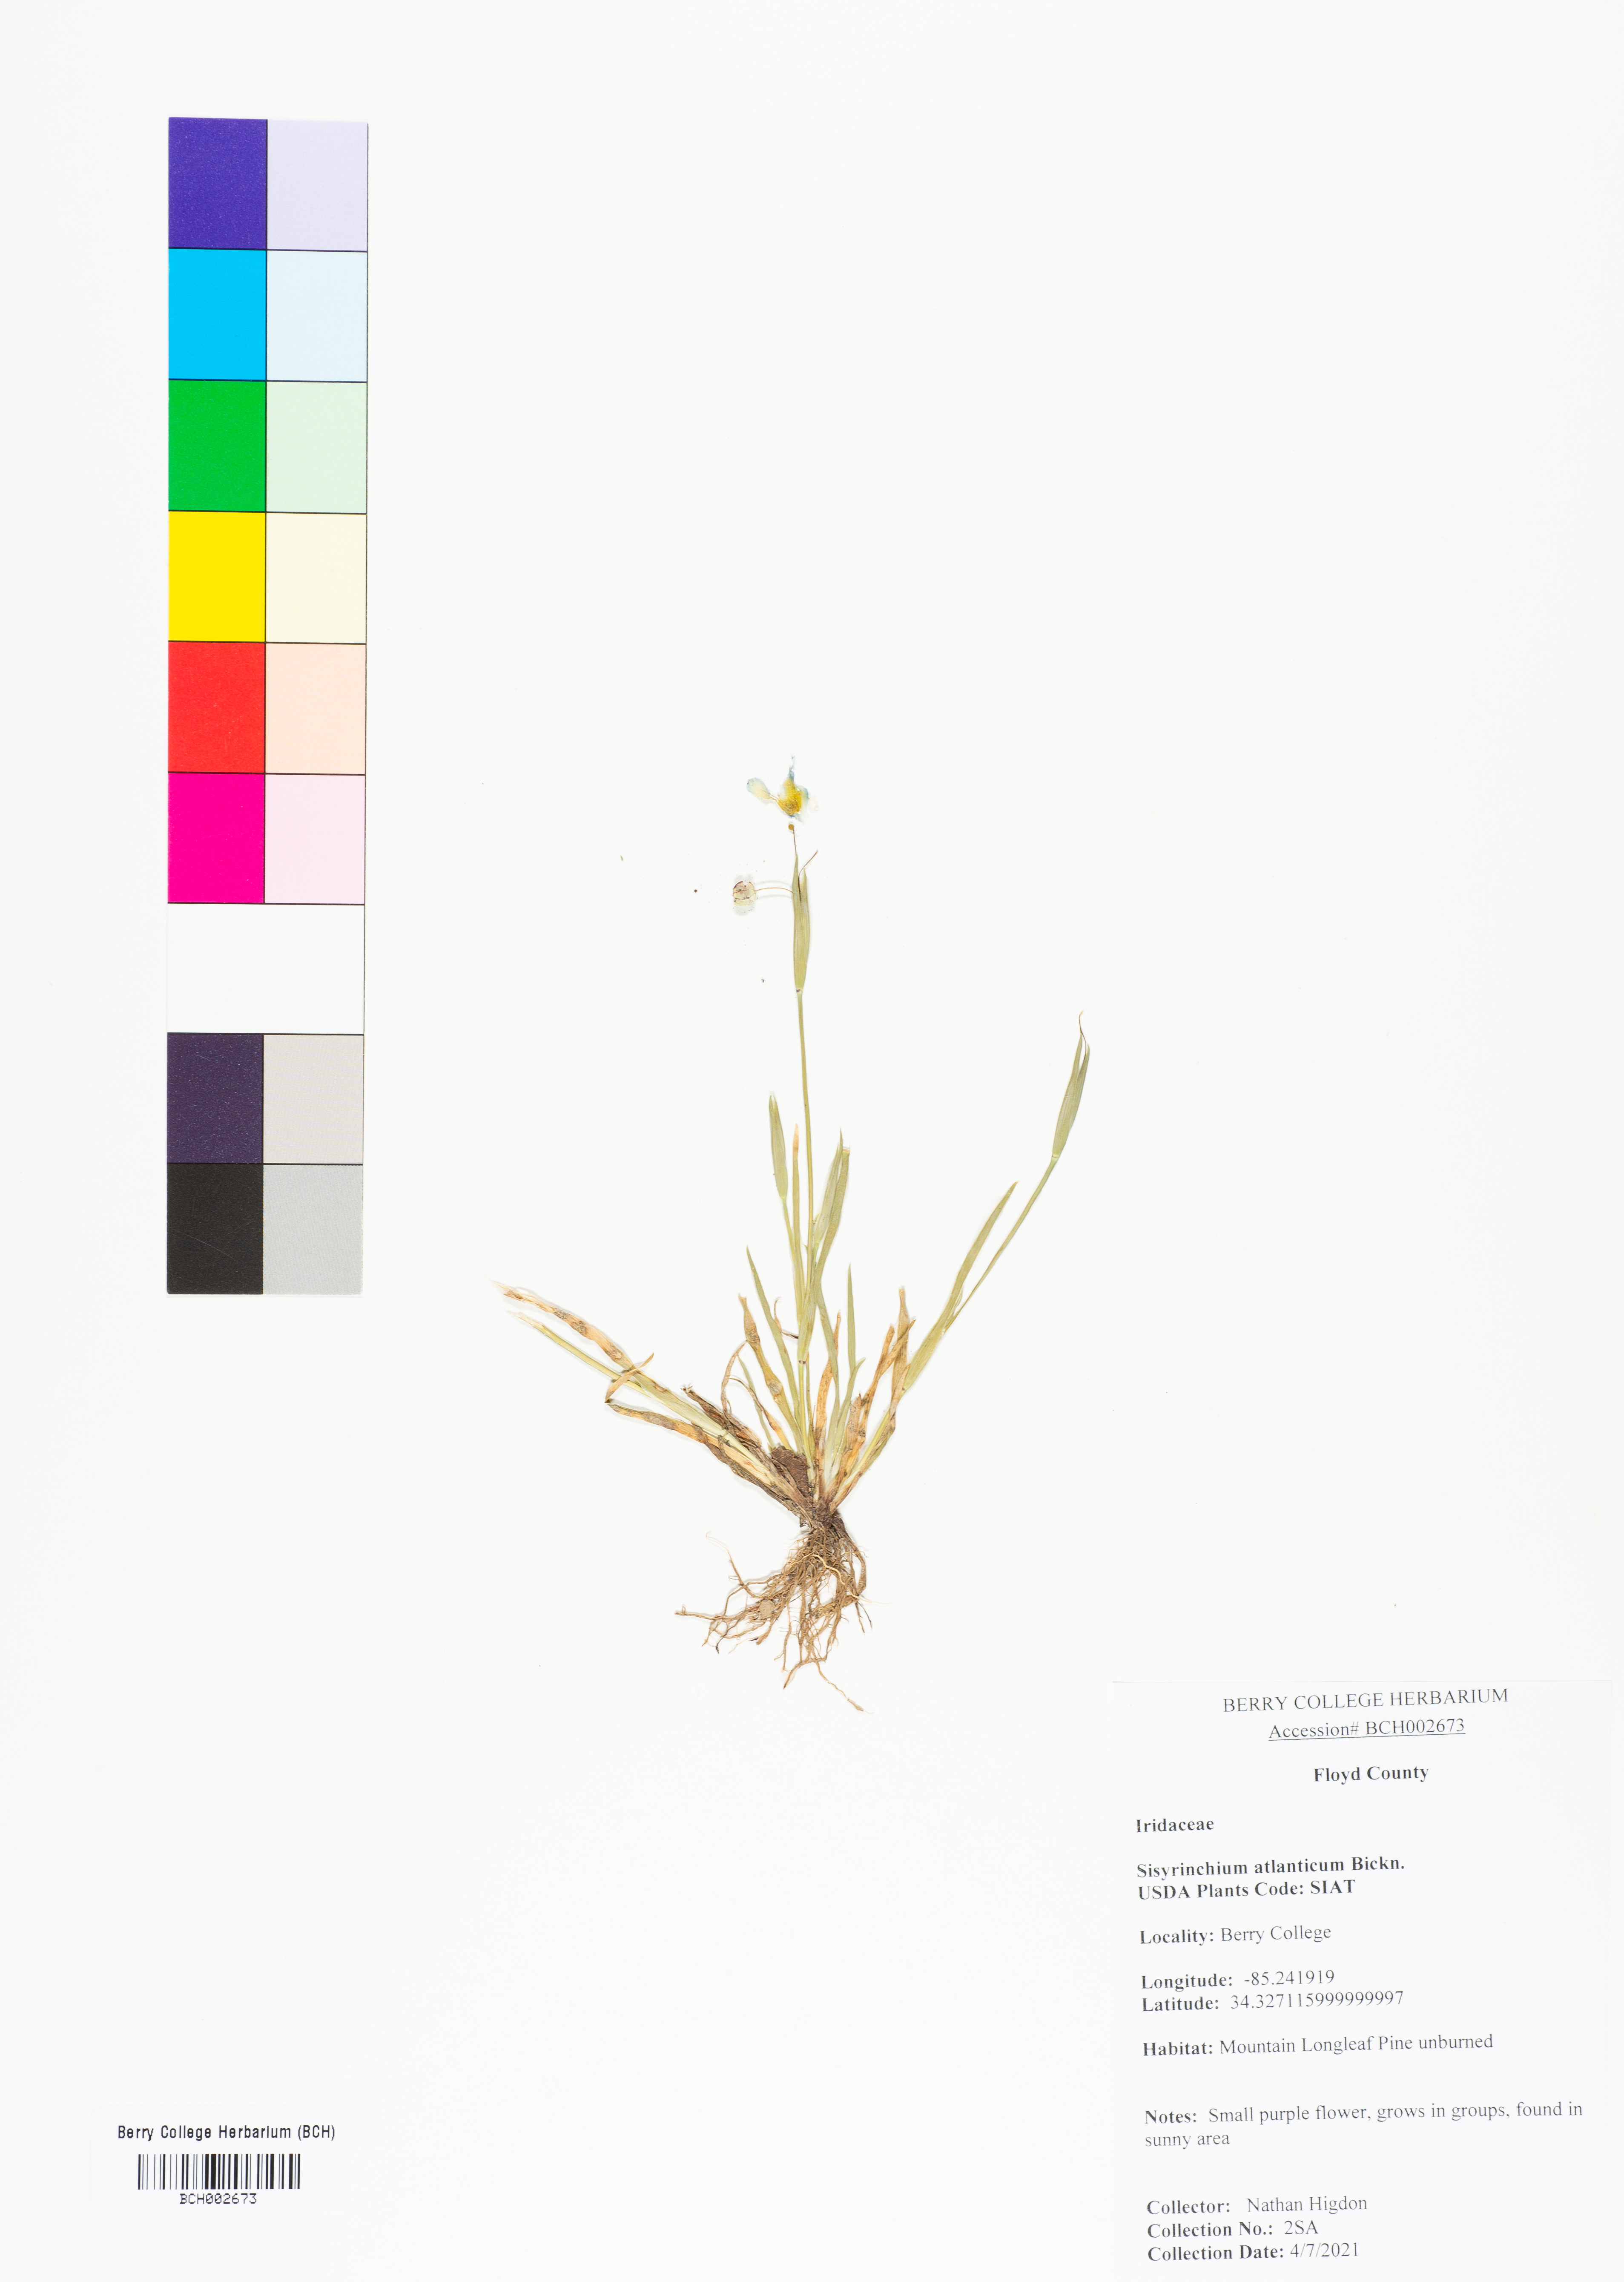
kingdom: Plantae
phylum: Tracheophyta
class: Liliopsida
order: Asparagales
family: Iridaceae
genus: Sisyrinchium
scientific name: Sisyrinchium atlanticum
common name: Eastern blue-eyed-grass
